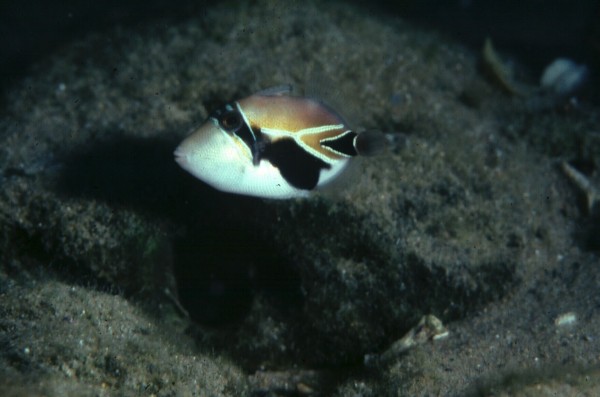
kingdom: Animalia
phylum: Chordata
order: Tetraodontiformes
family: Balistidae
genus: Rhinecanthus
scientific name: Rhinecanthus rectangulus
